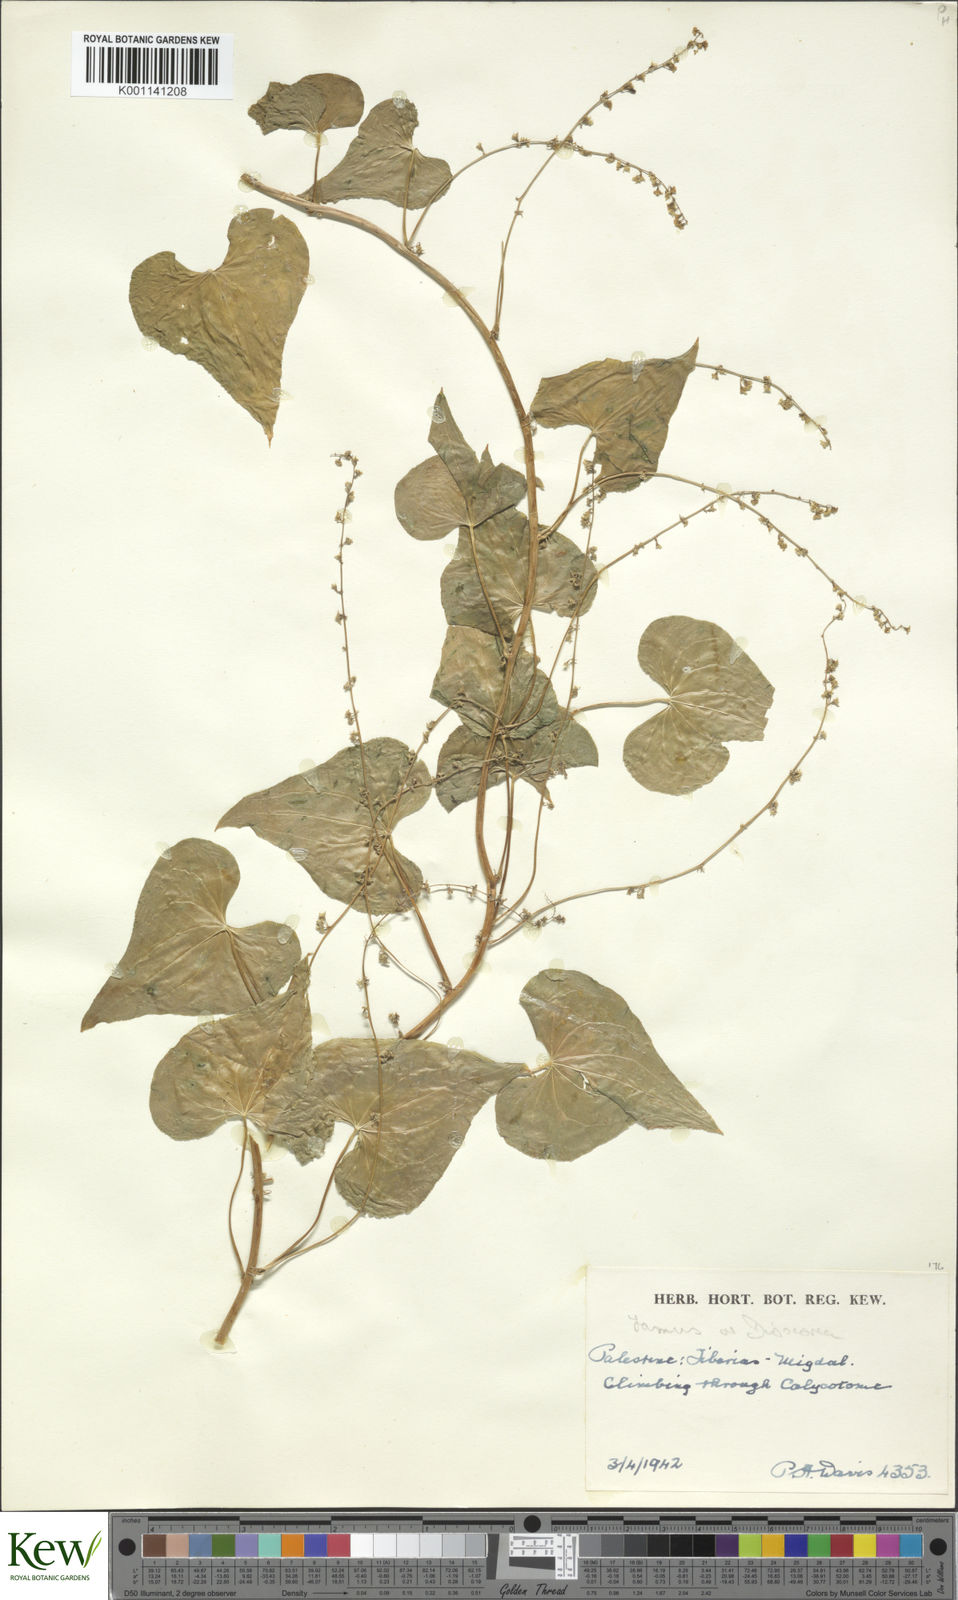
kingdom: Plantae
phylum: Tracheophyta
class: Liliopsida
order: Dioscoreales
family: Dioscoreaceae
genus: Dioscorea
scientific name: Dioscorea communis
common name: Black-bindweed
